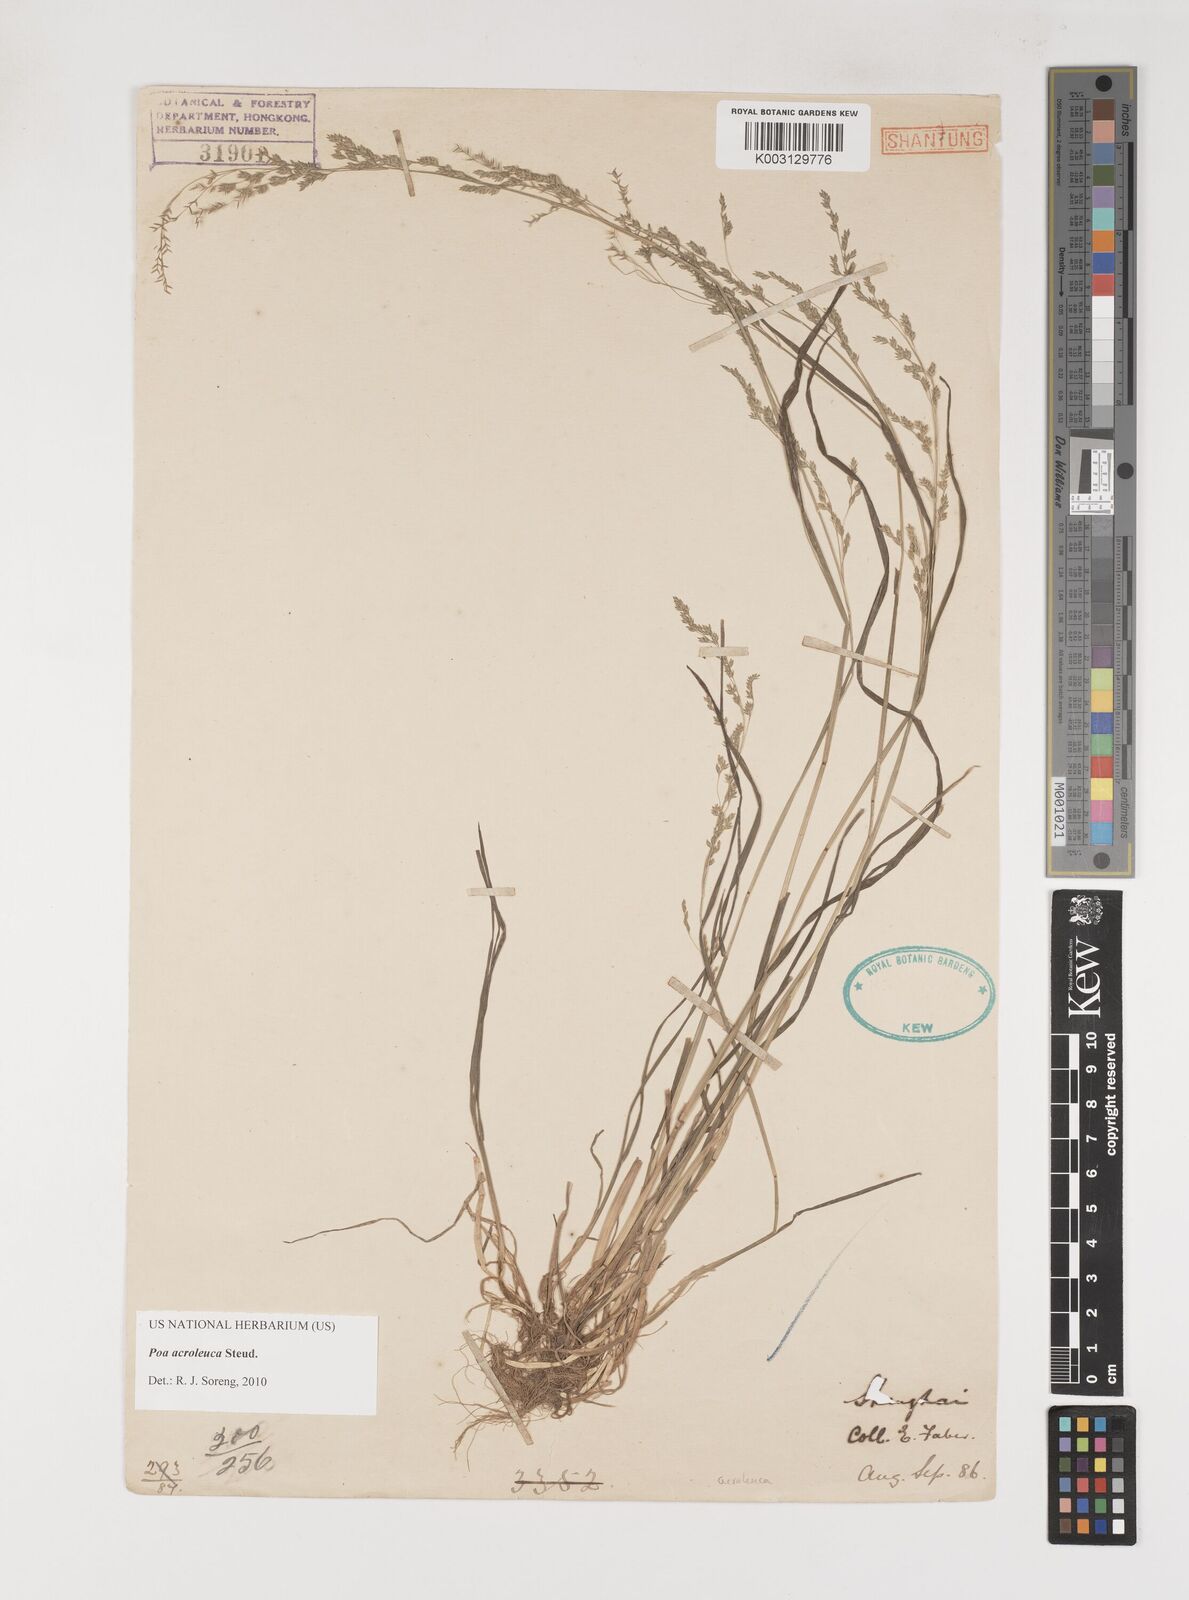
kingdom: Plantae
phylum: Tracheophyta
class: Liliopsida
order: Poales
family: Poaceae
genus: Poa
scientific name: Poa acroleuca
